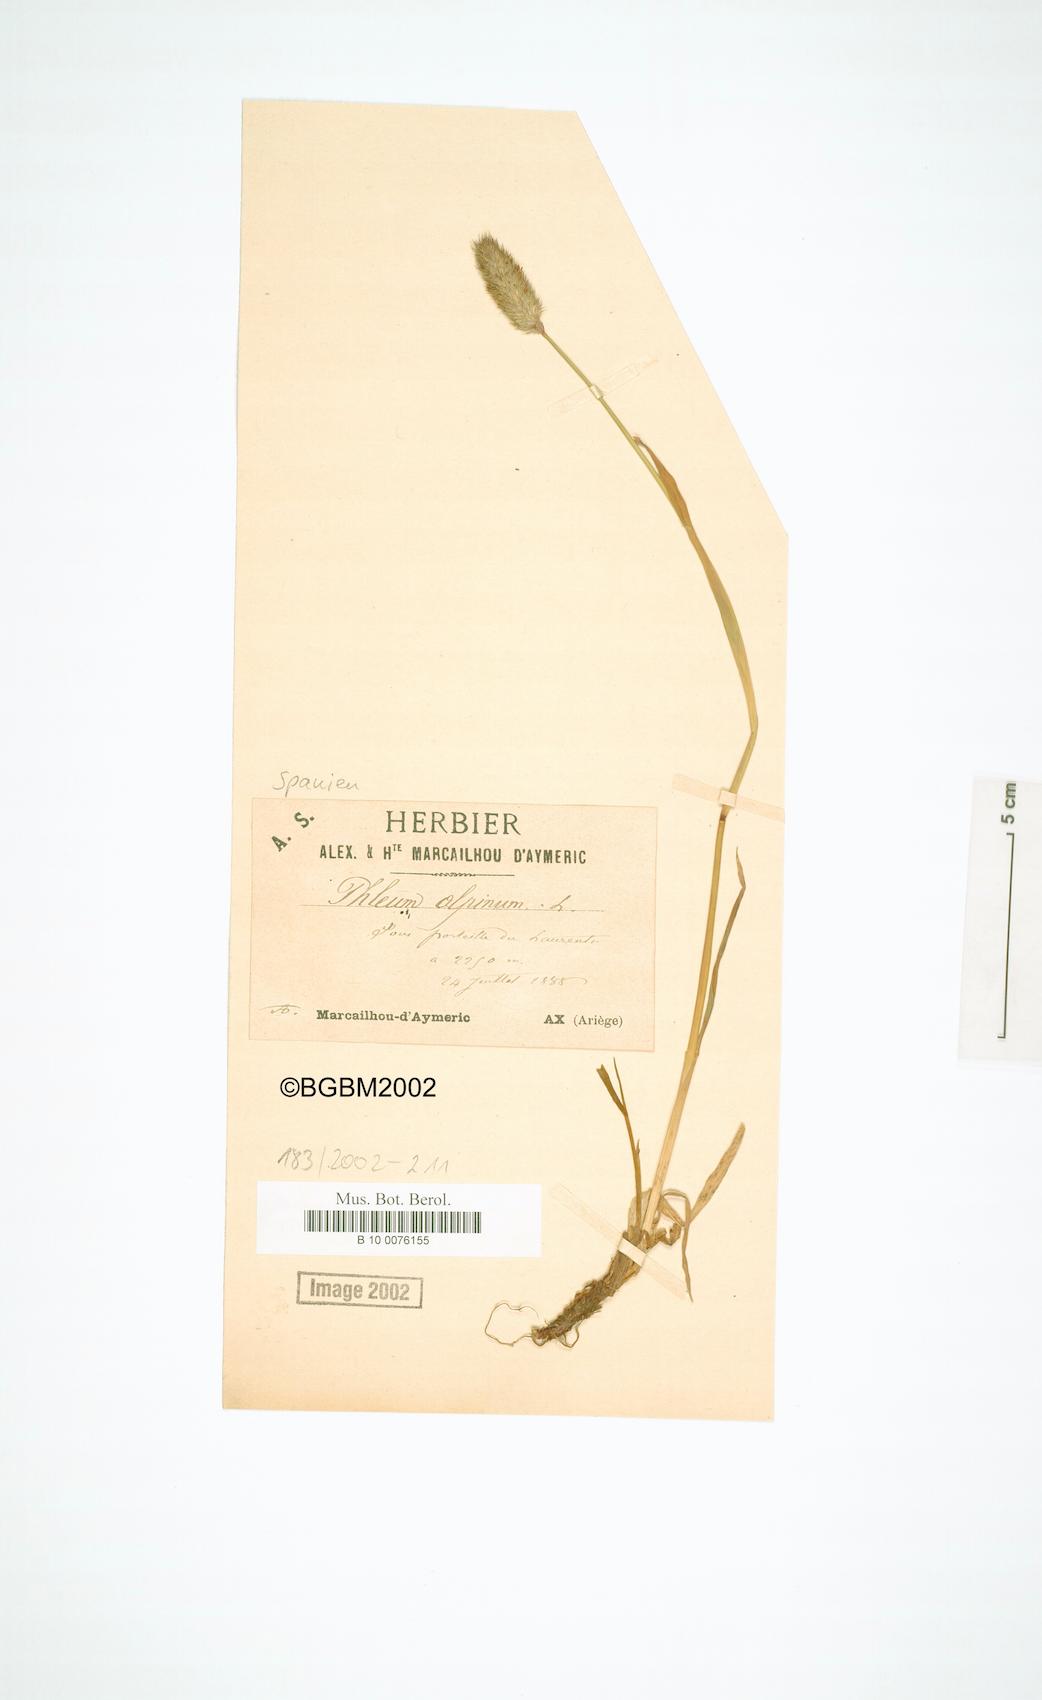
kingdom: Plantae
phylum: Tracheophyta
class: Liliopsida
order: Poales
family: Poaceae
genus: Phleum
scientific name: Phleum alpinum
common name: Alpine cat's-tail
